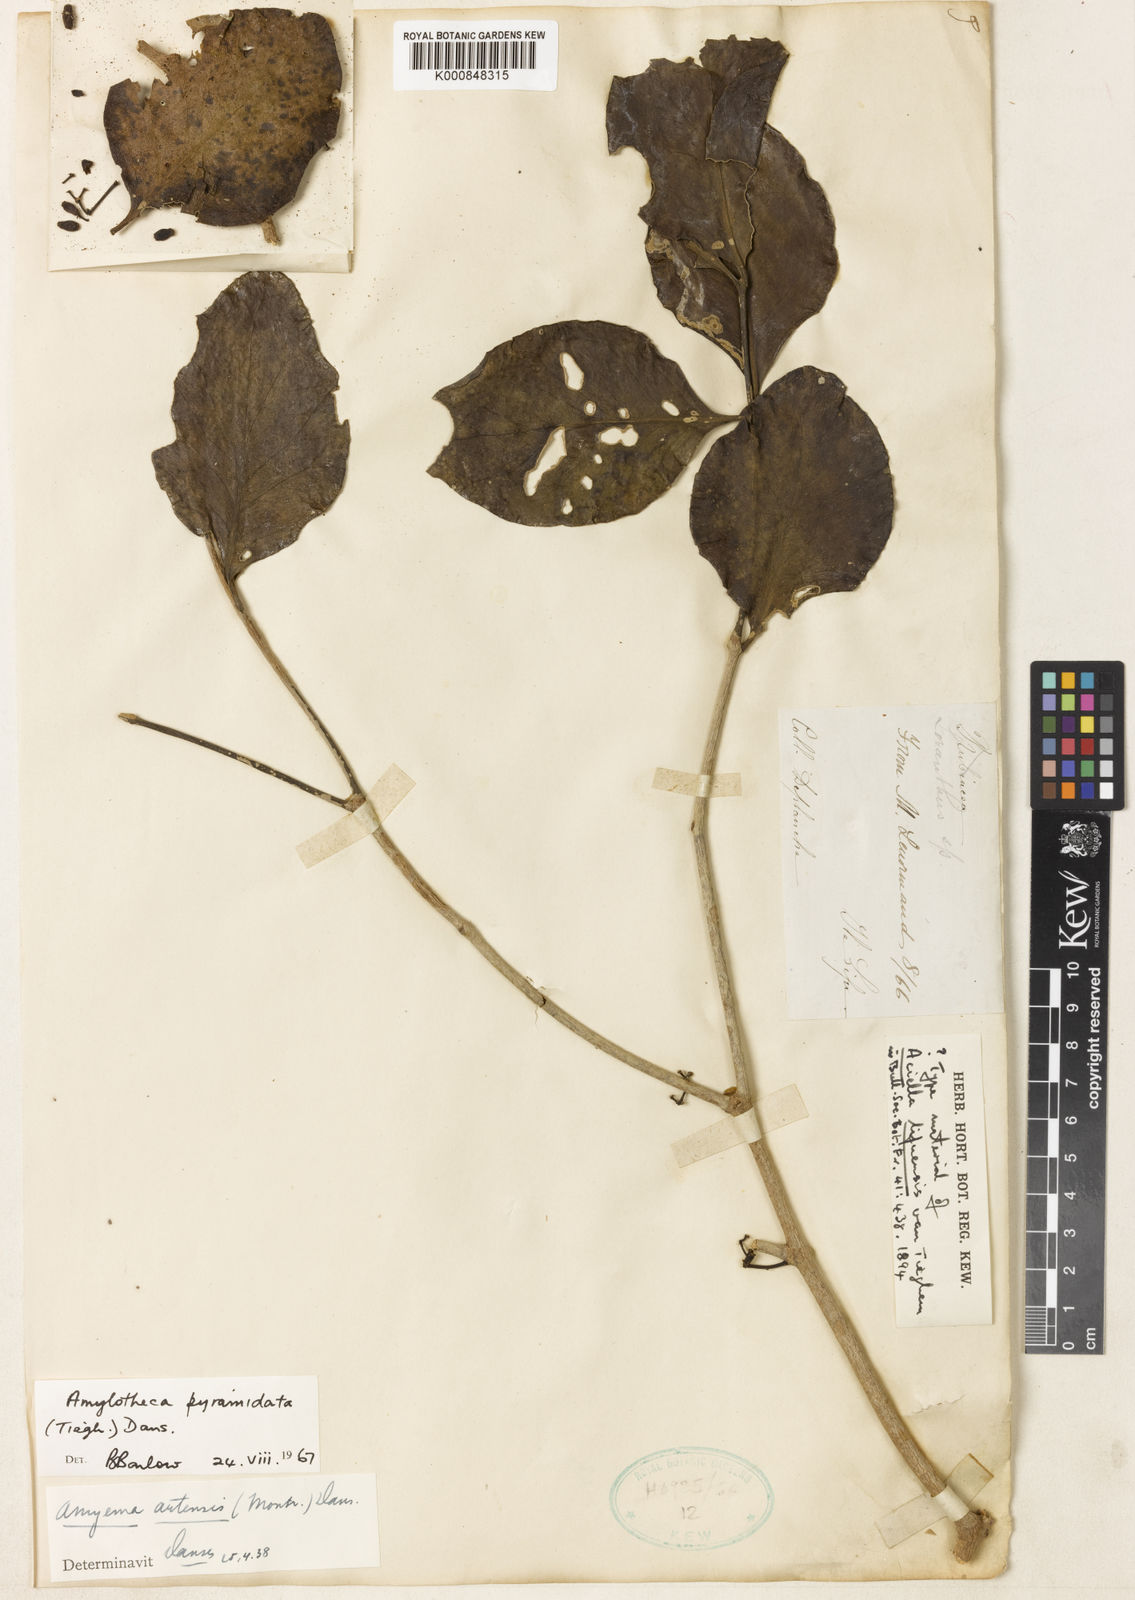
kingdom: Plantae
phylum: Tracheophyta
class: Magnoliopsida
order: Santalales
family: Loranthaceae
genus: Amylotheca
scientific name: Amylotheca dictyophleba
